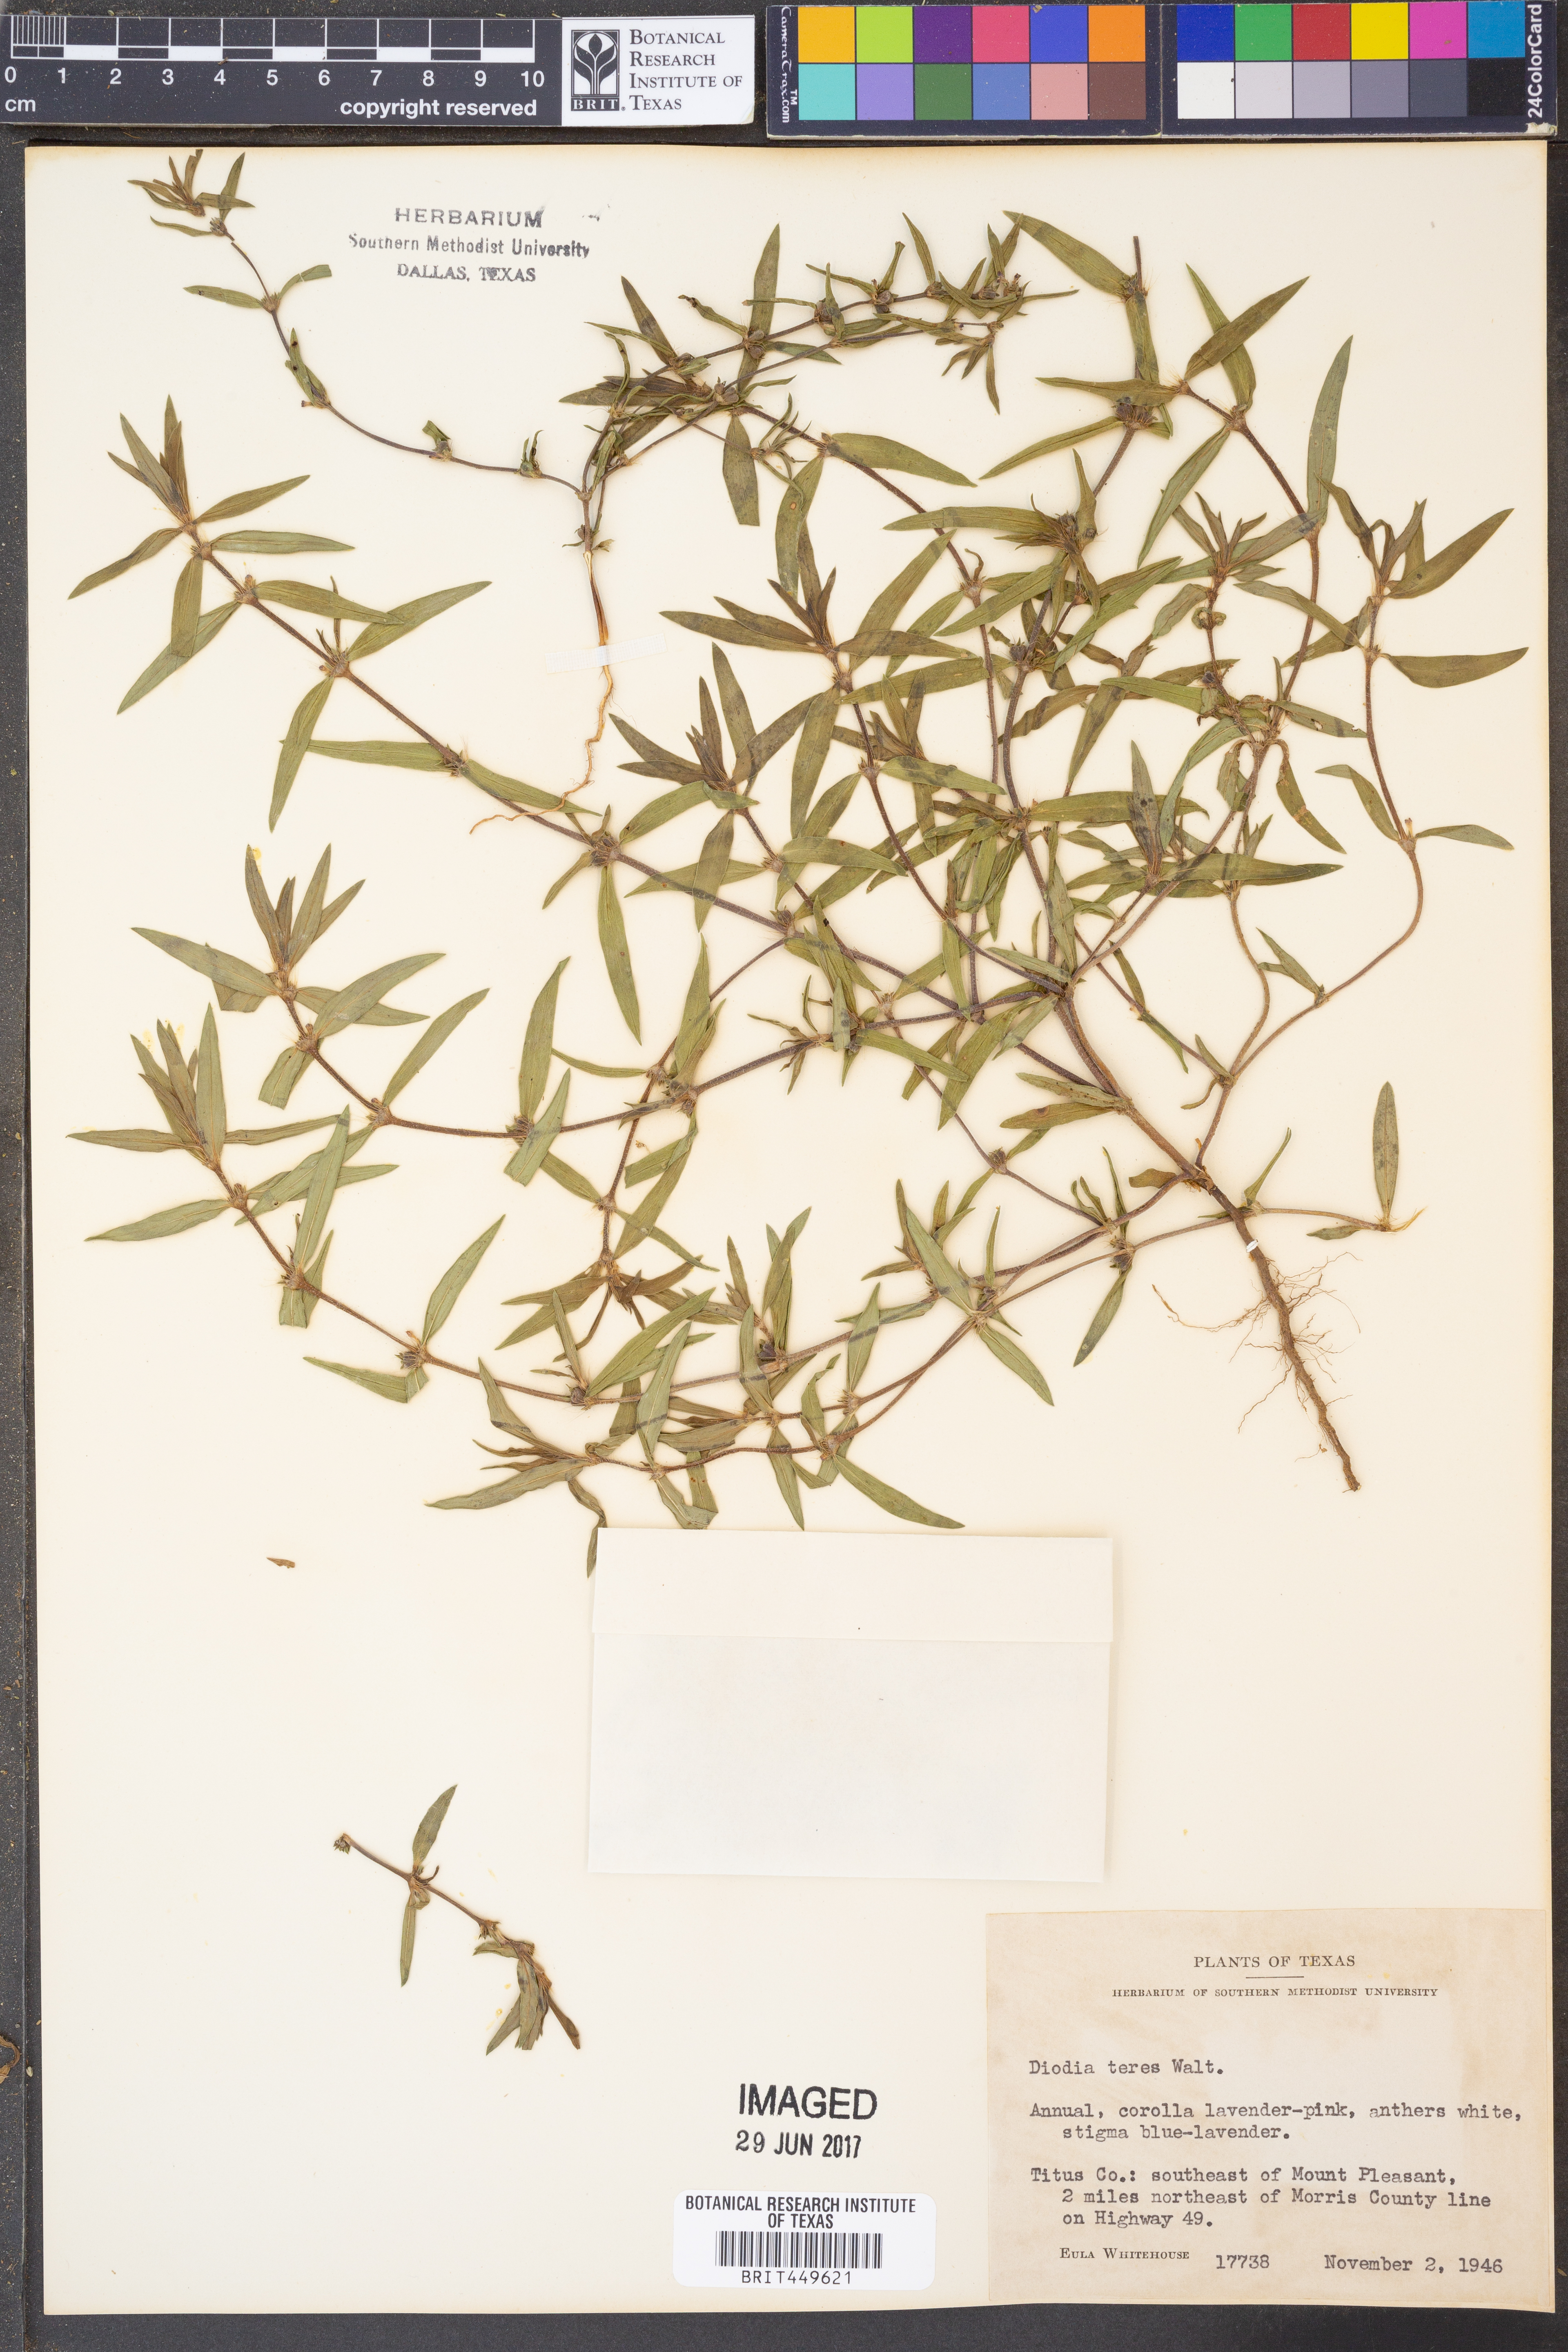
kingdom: Plantae
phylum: Tracheophyta
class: Magnoliopsida
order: Gentianales
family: Rubiaceae
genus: Hexasepalum
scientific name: Hexasepalum teres
